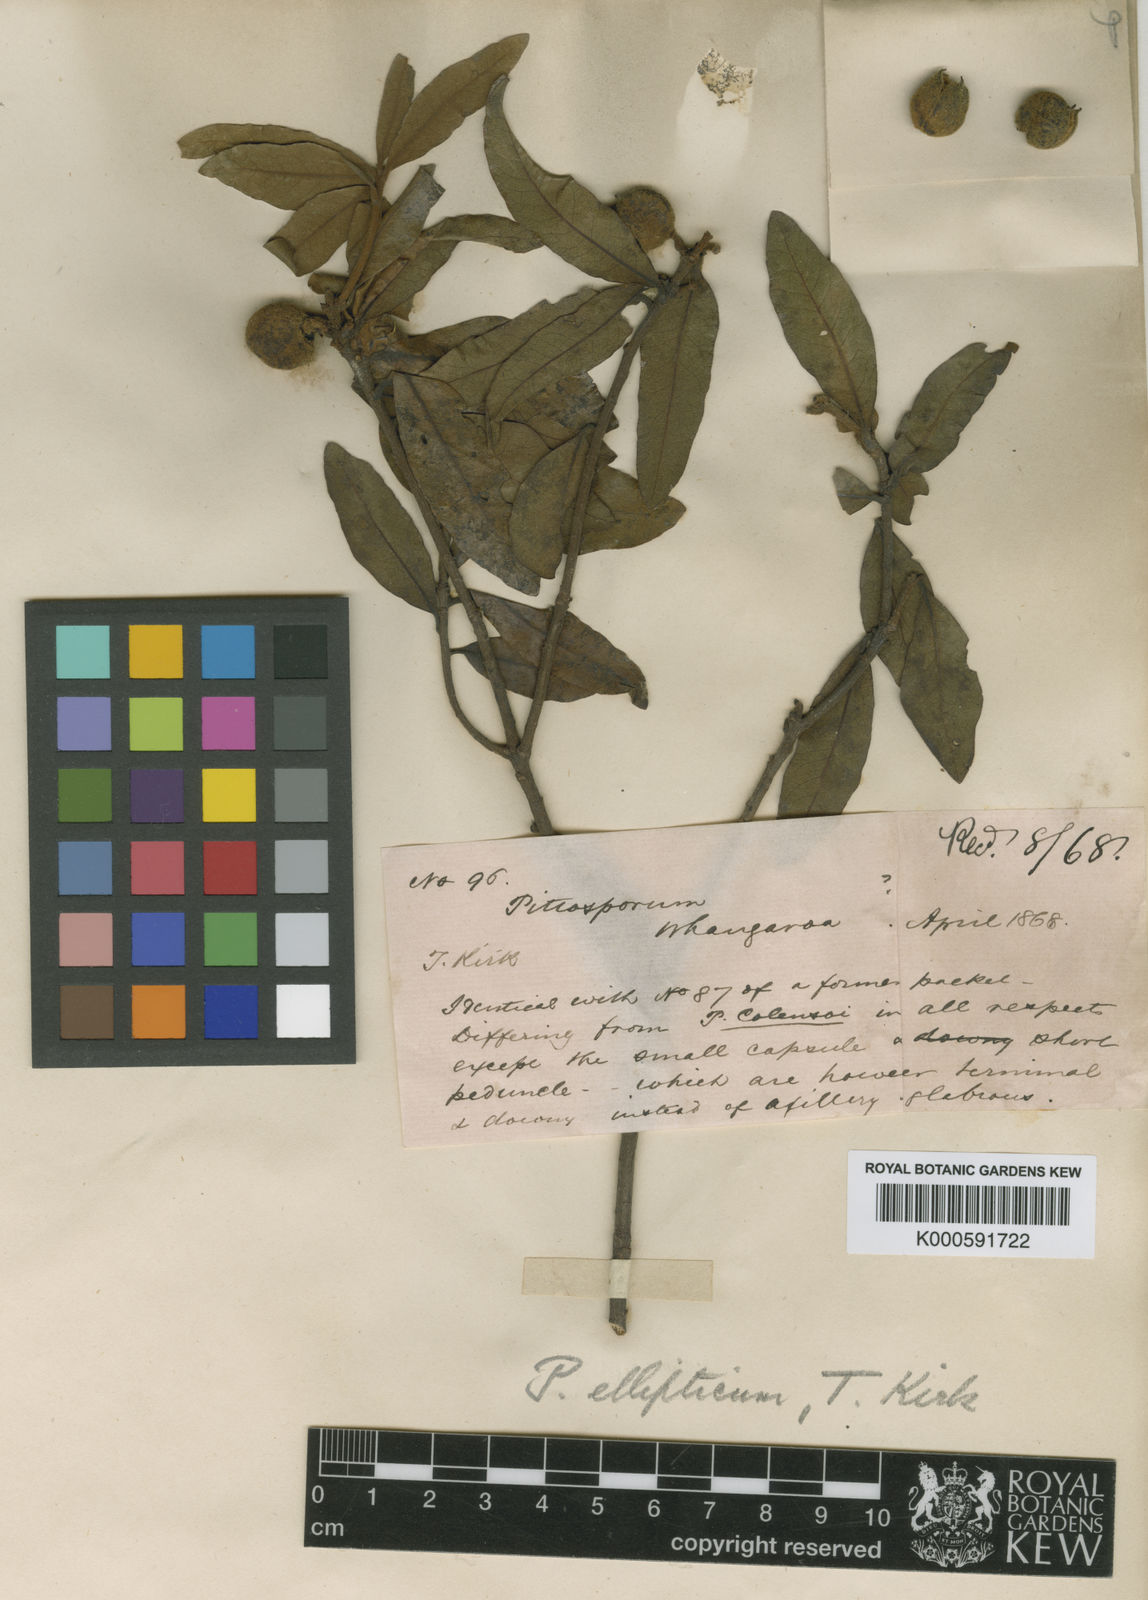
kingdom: Plantae
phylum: Tracheophyta
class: Magnoliopsida
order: Apiales
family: Pittosporaceae
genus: Pittosporum
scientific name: Pittosporum ellipticum
